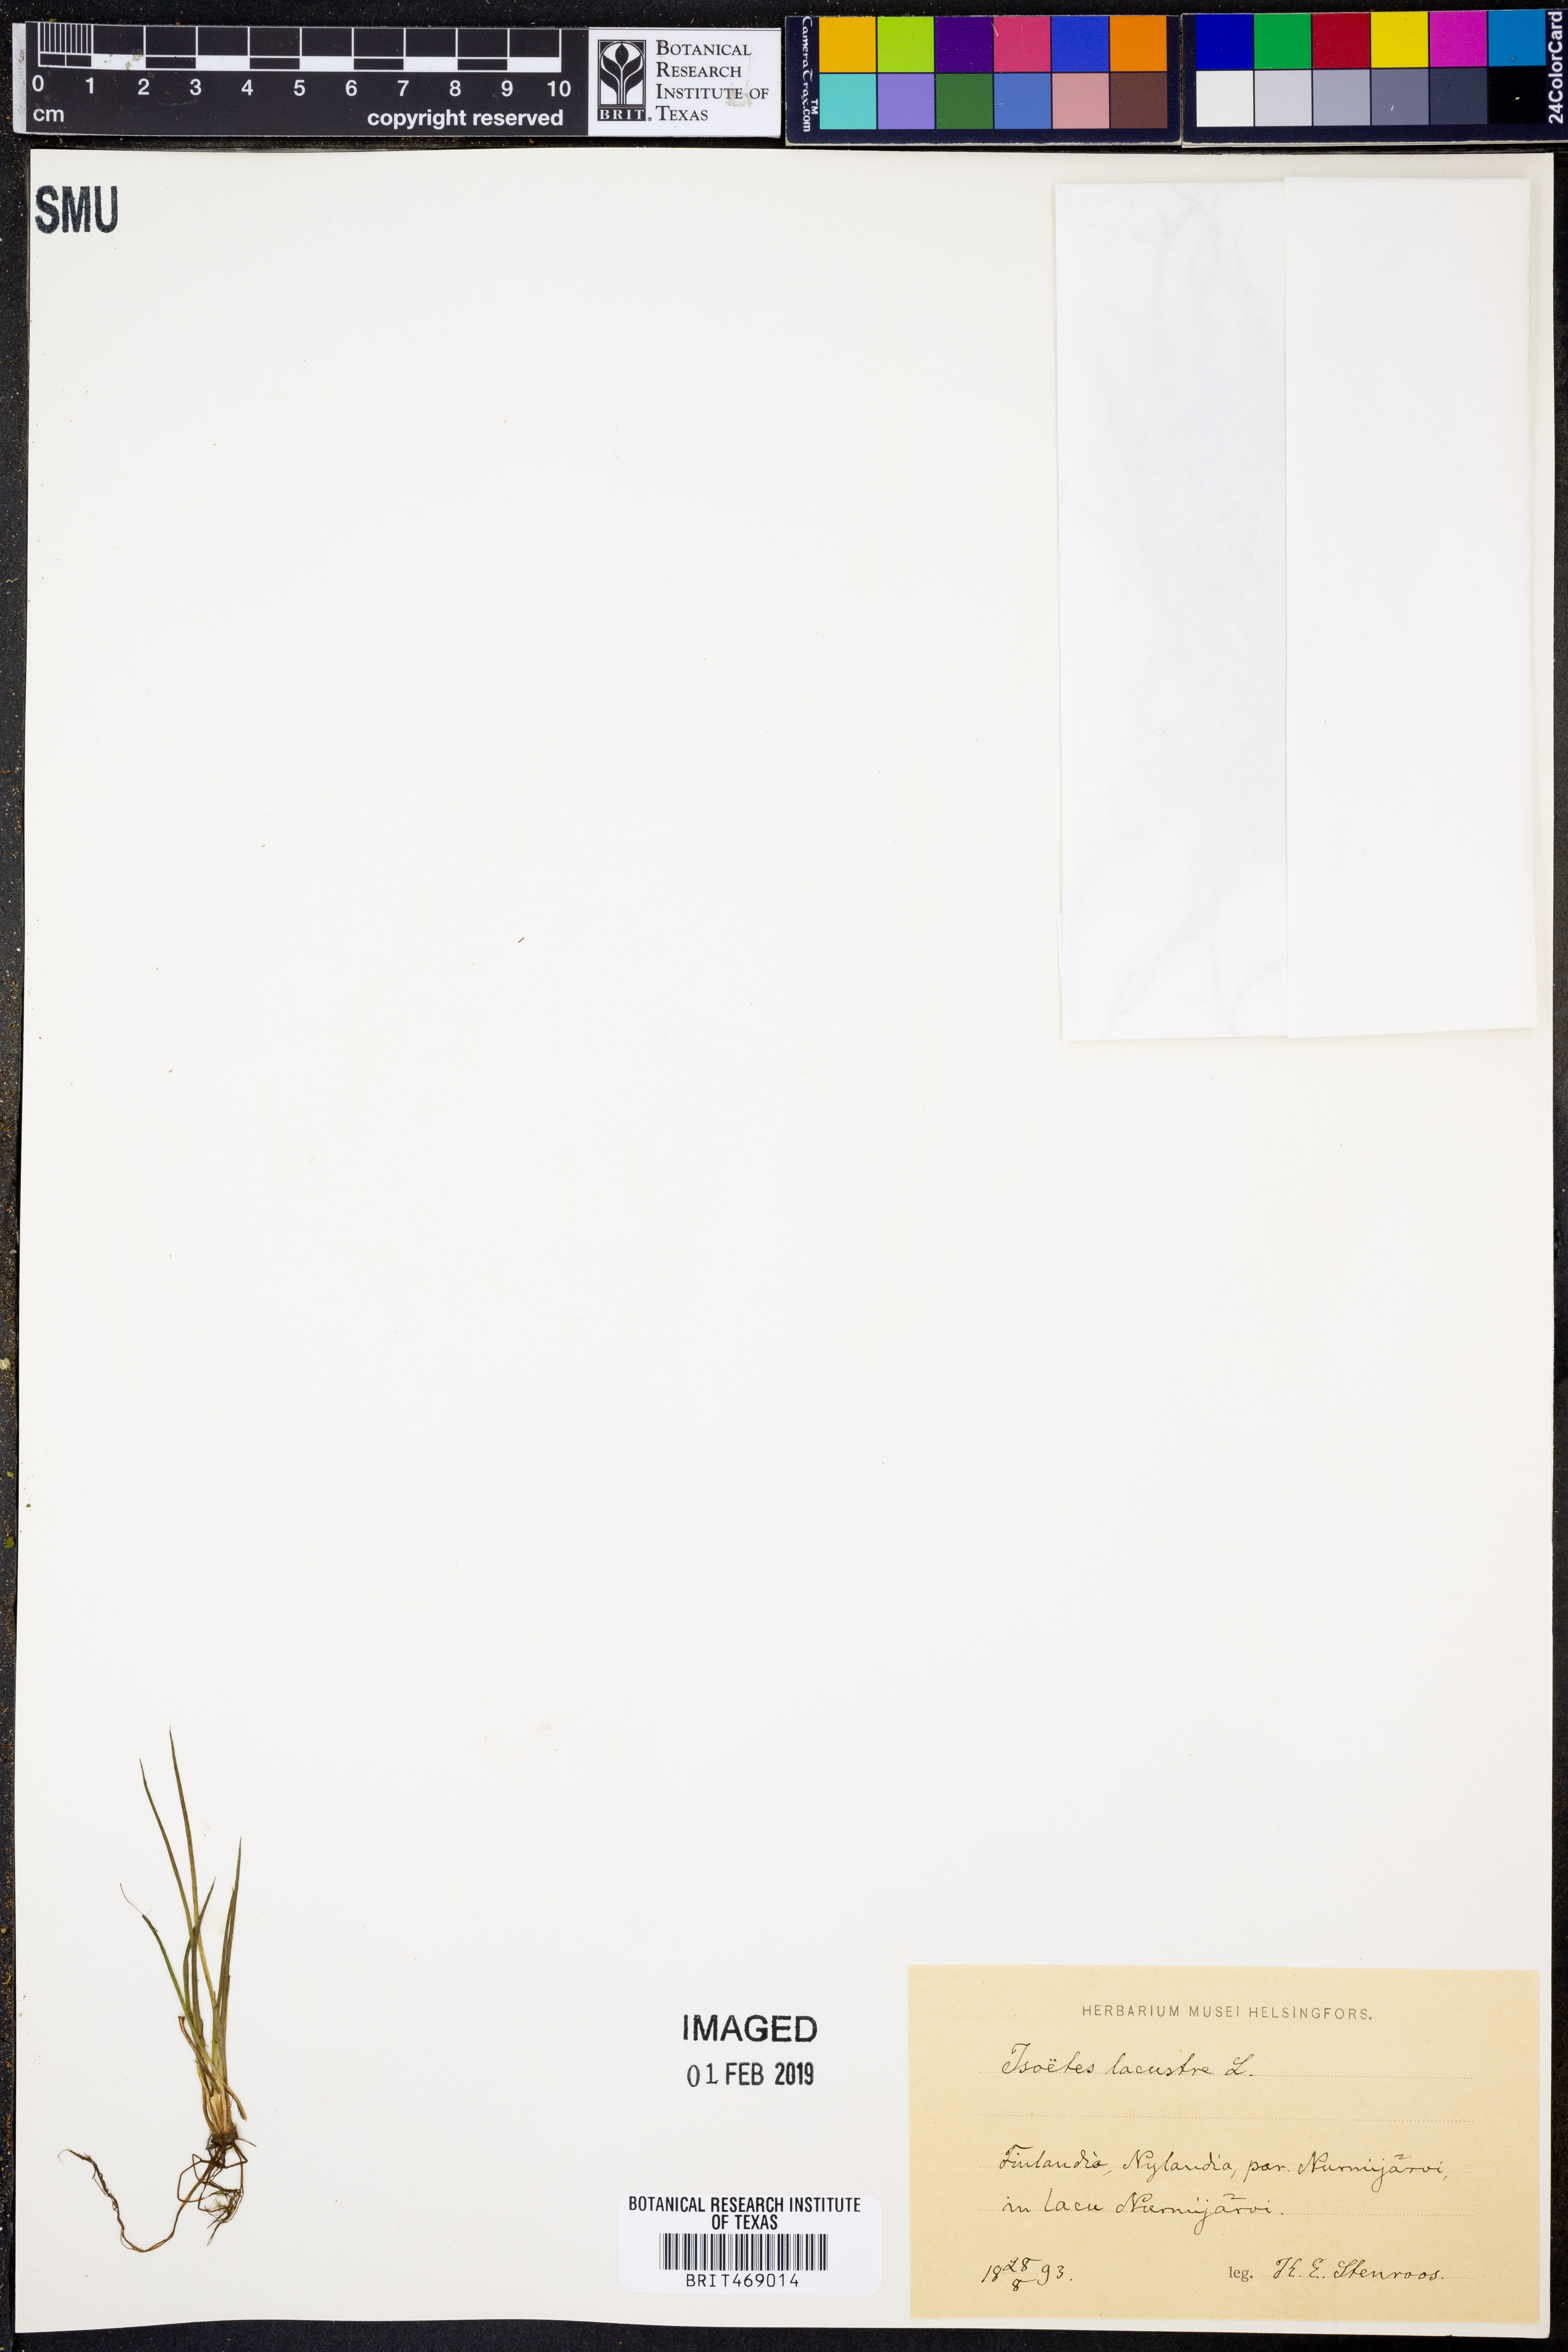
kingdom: Plantae
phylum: Tracheophyta
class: Lycopodiopsida
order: Isoetales
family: Isoetaceae
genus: Isoetes
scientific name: Isoetes lacustris
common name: Common quillwort
